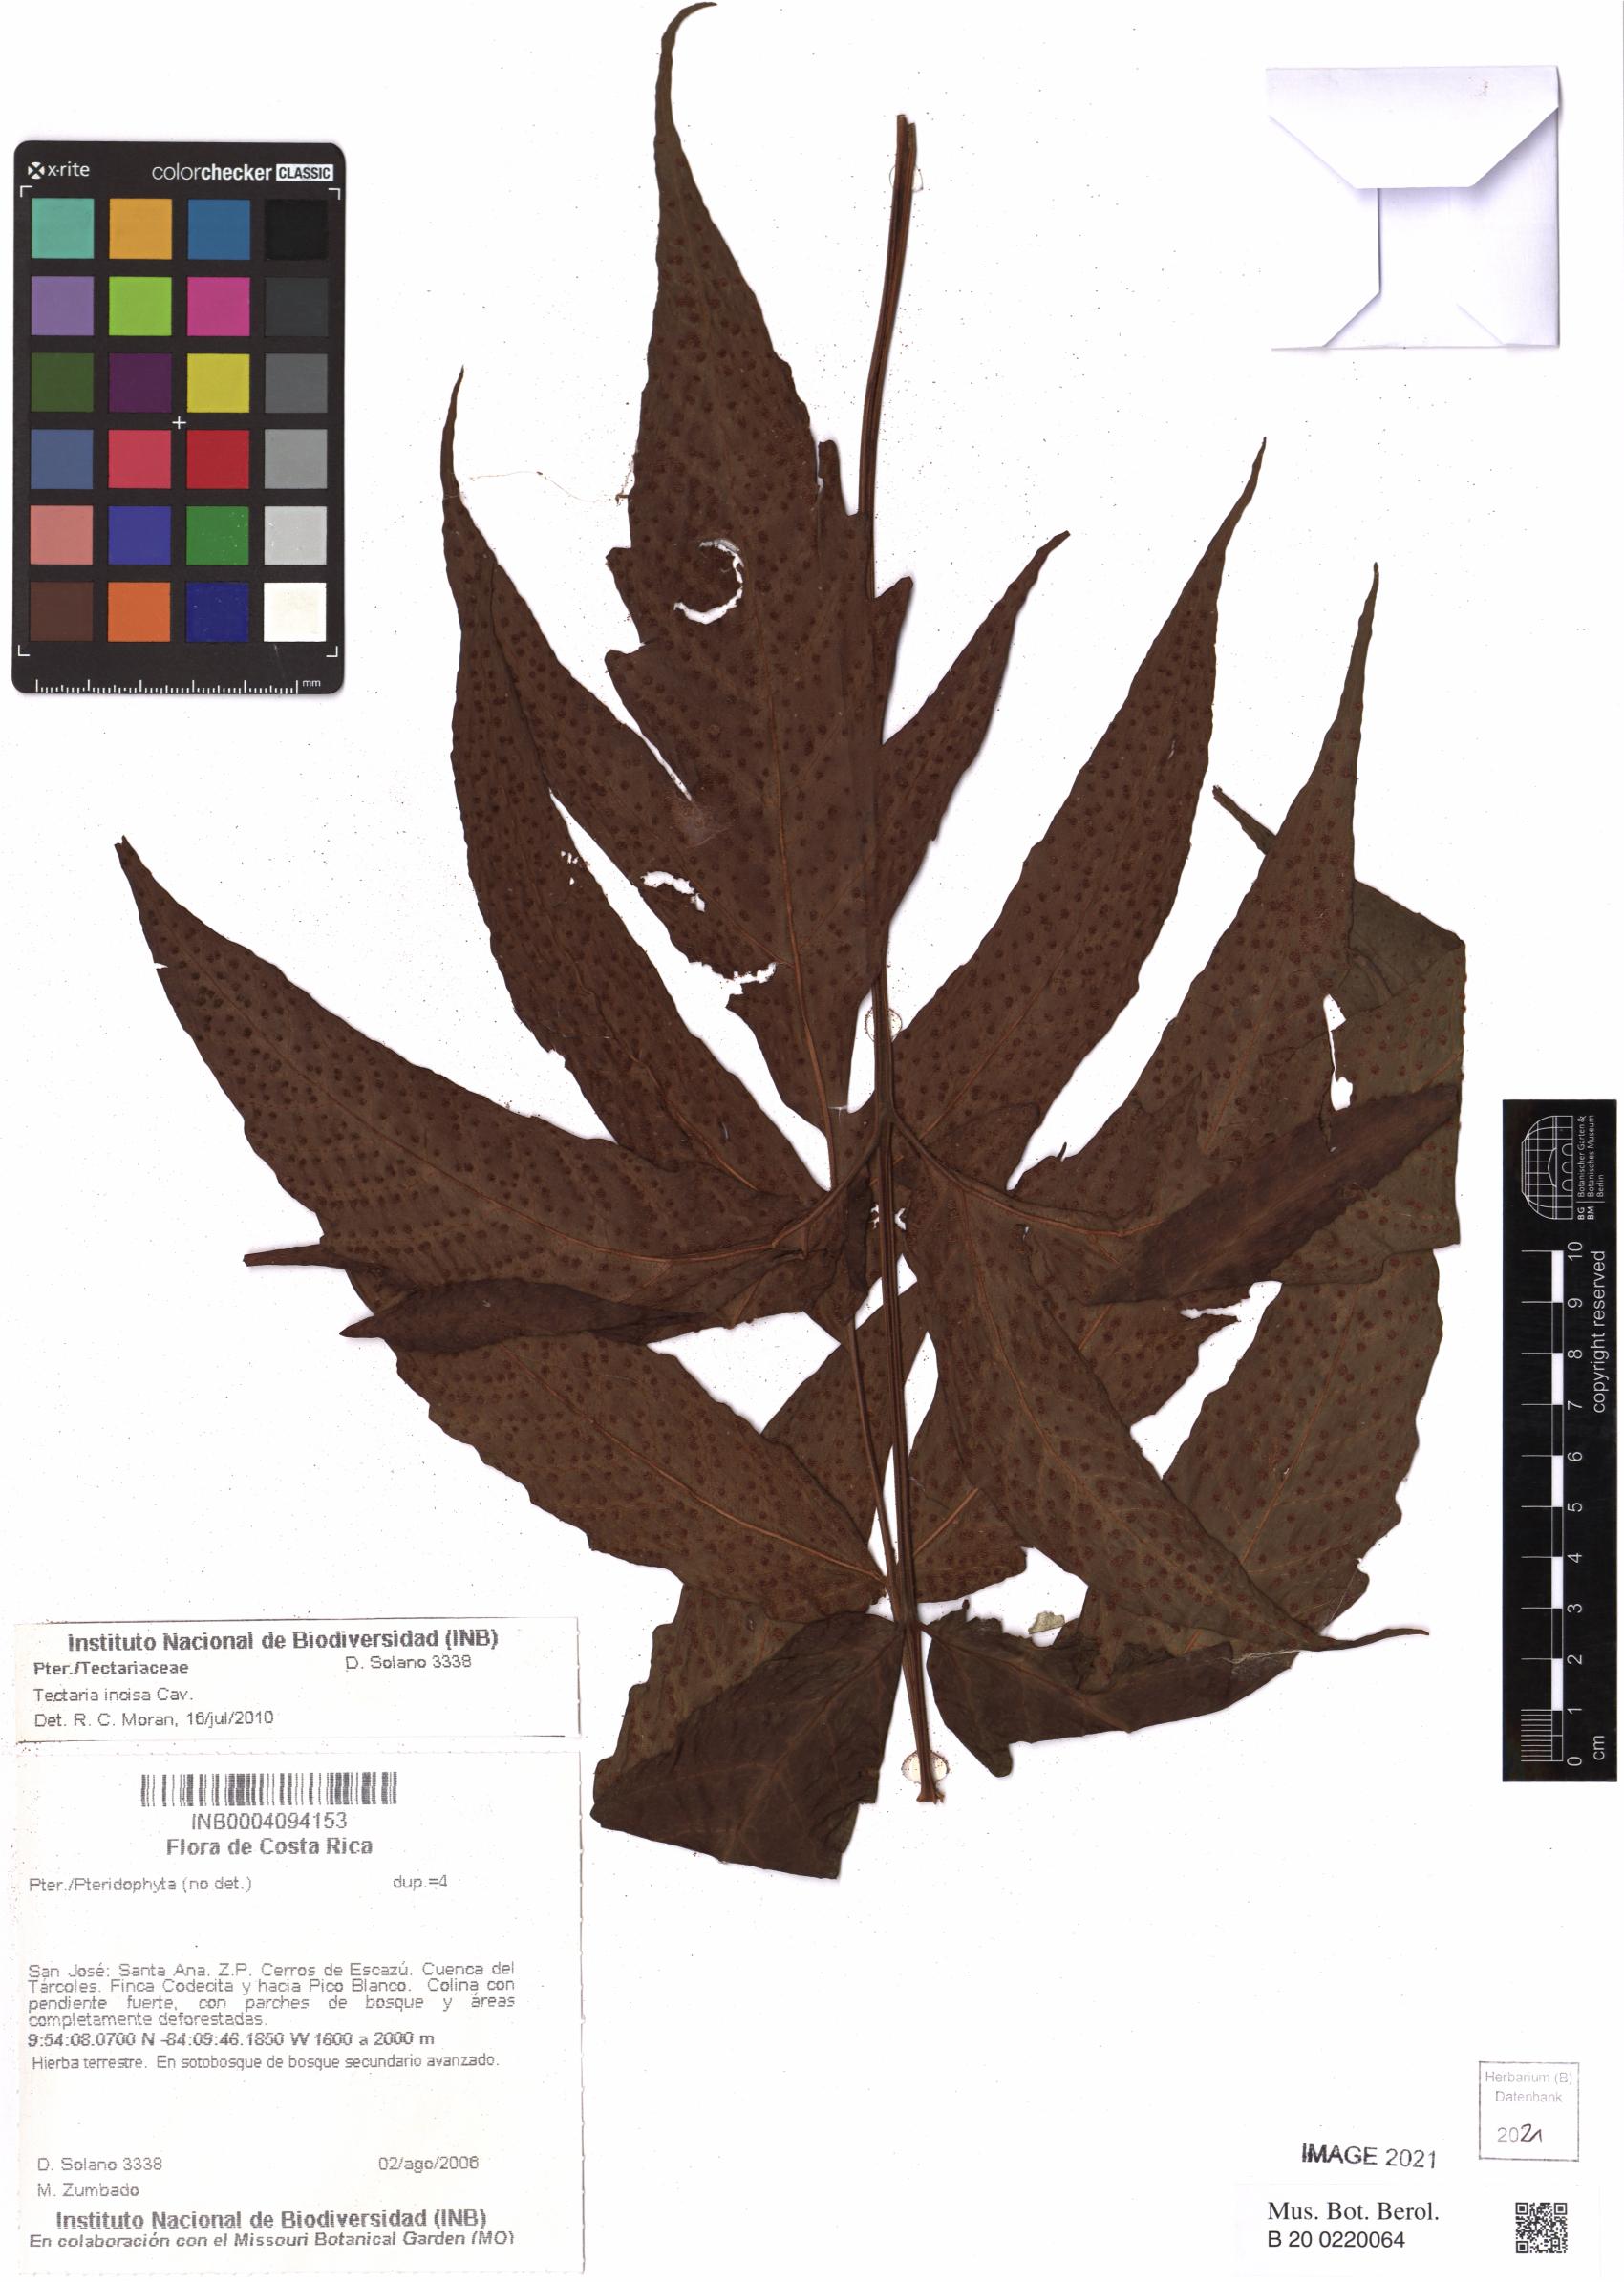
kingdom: Plantae
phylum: Tracheophyta
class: Polypodiopsida
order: Polypodiales
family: Tectariaceae
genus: Tectaria
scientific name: Tectaria incisa
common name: Incised halberd fern
